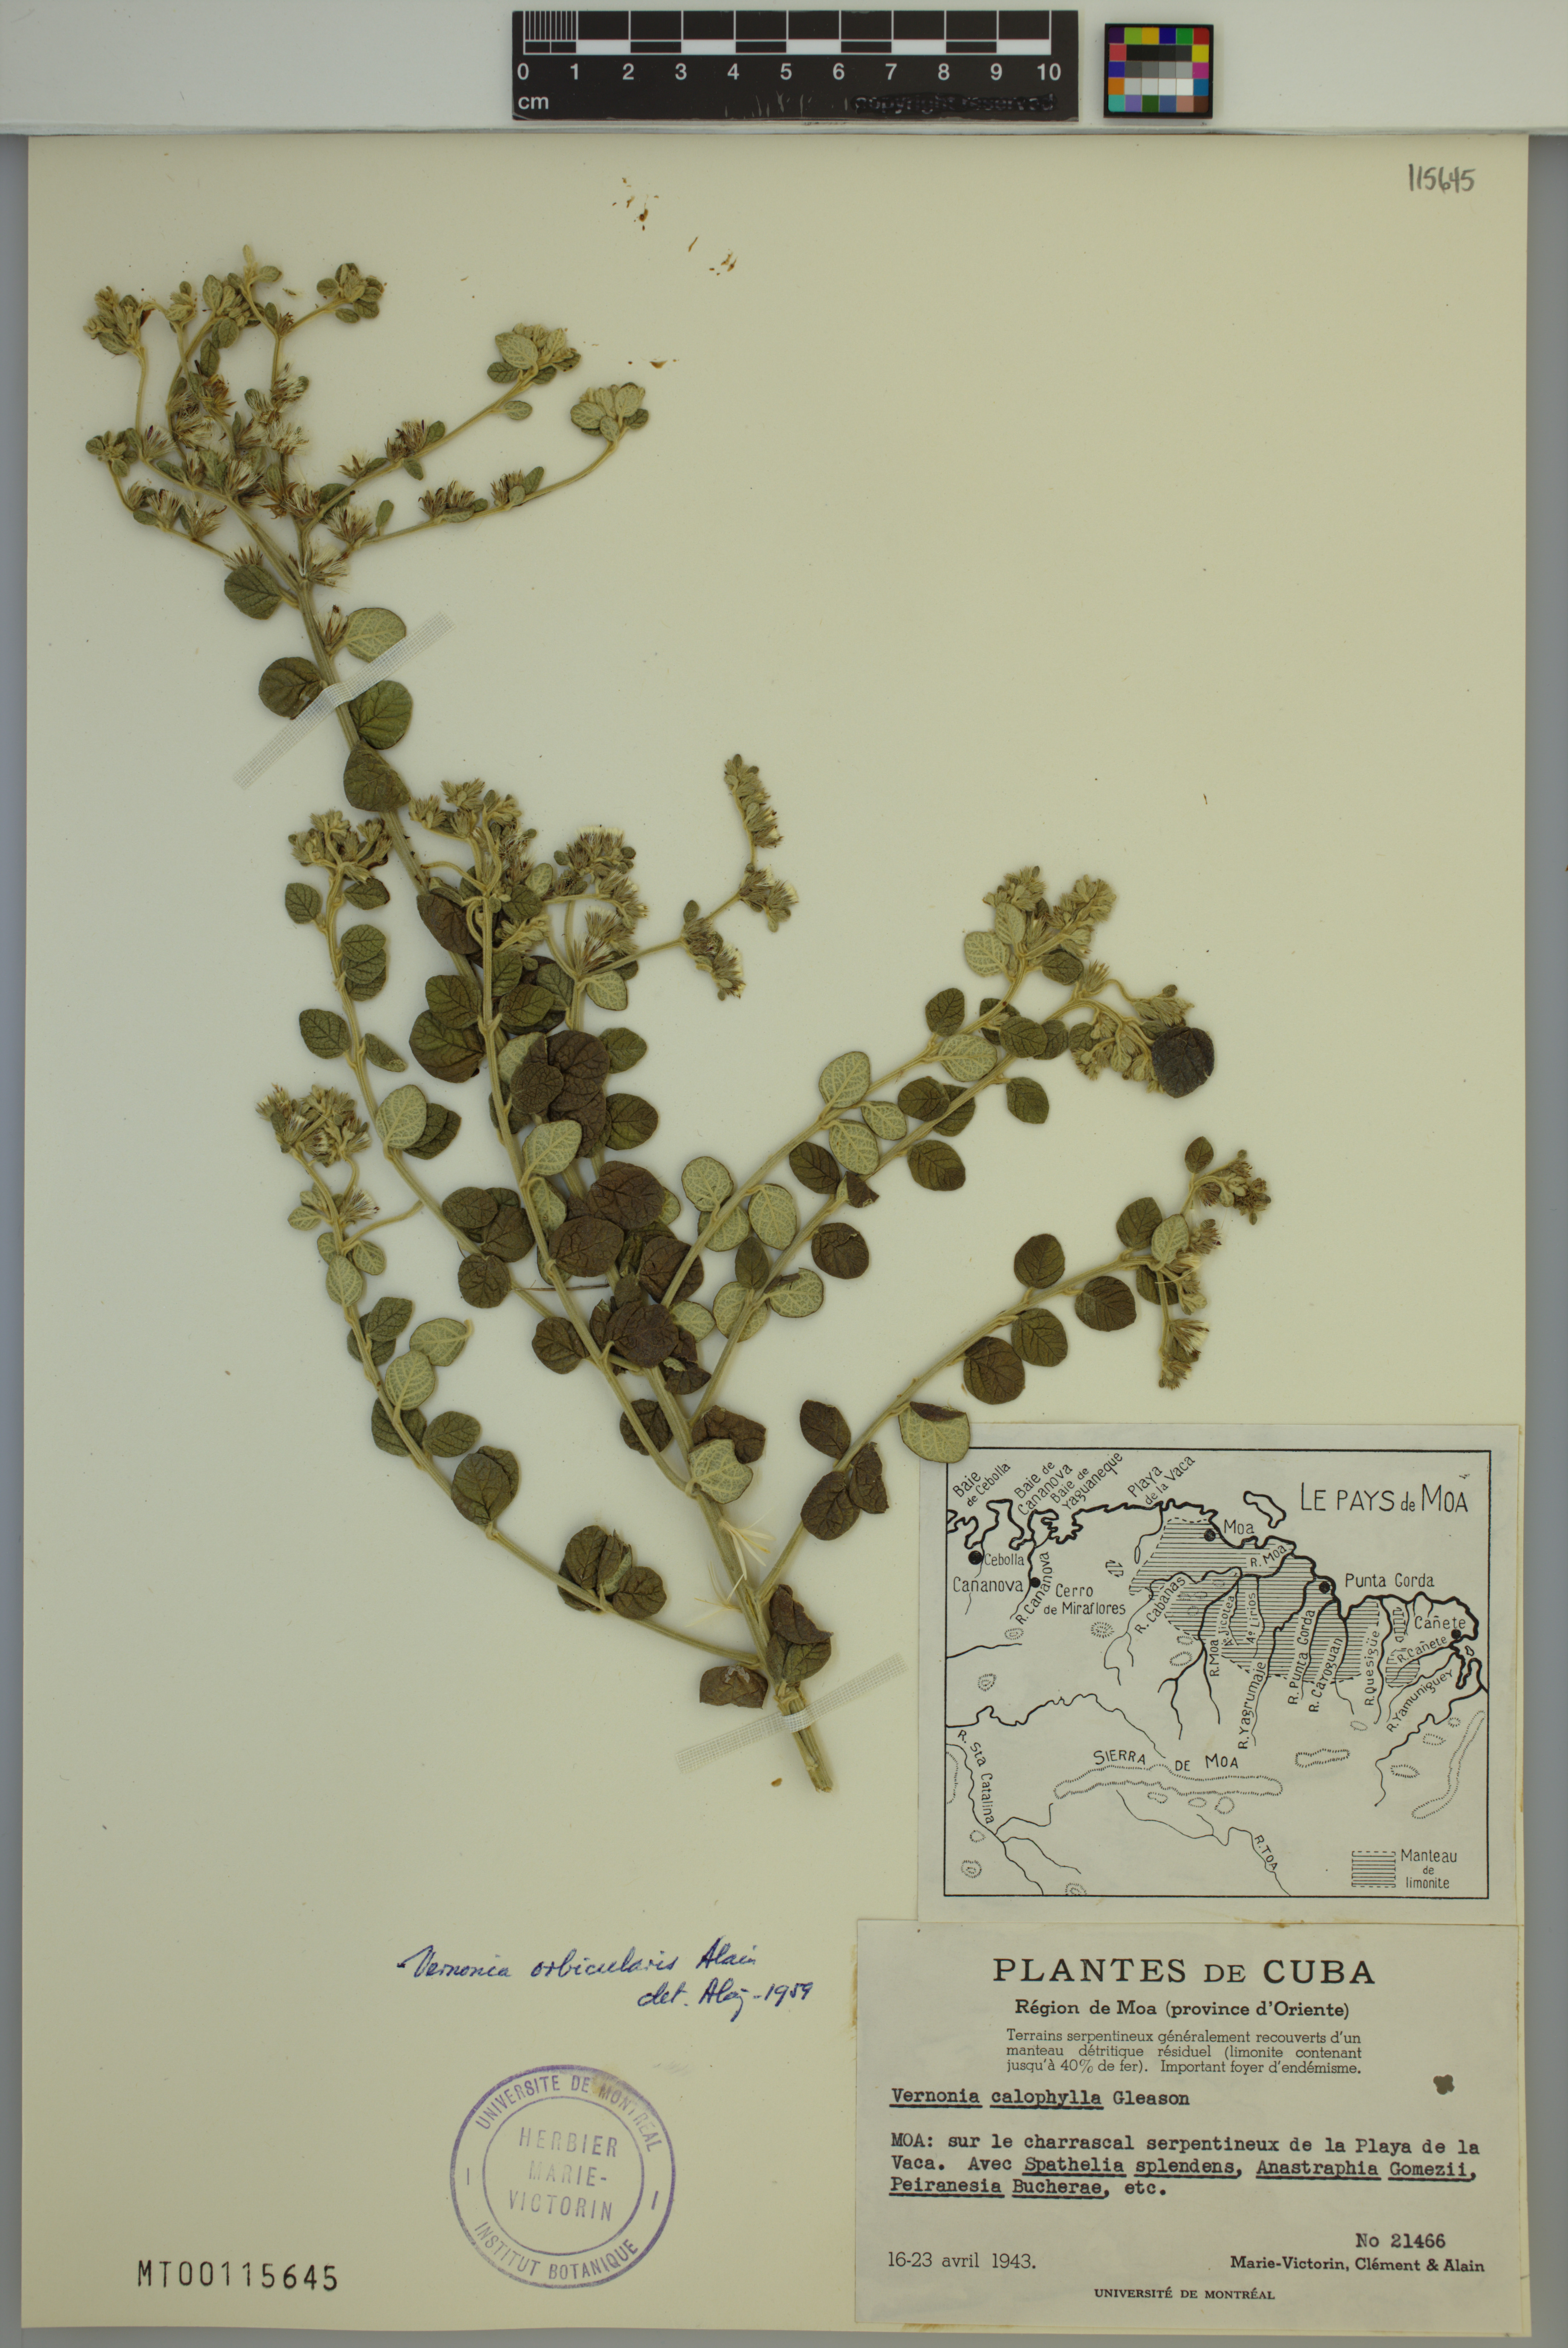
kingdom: Plantae
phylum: Tracheophyta
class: Magnoliopsida
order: Asterales
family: Asteraceae
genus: Lepidaploa
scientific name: Lepidaploa orbicularis
